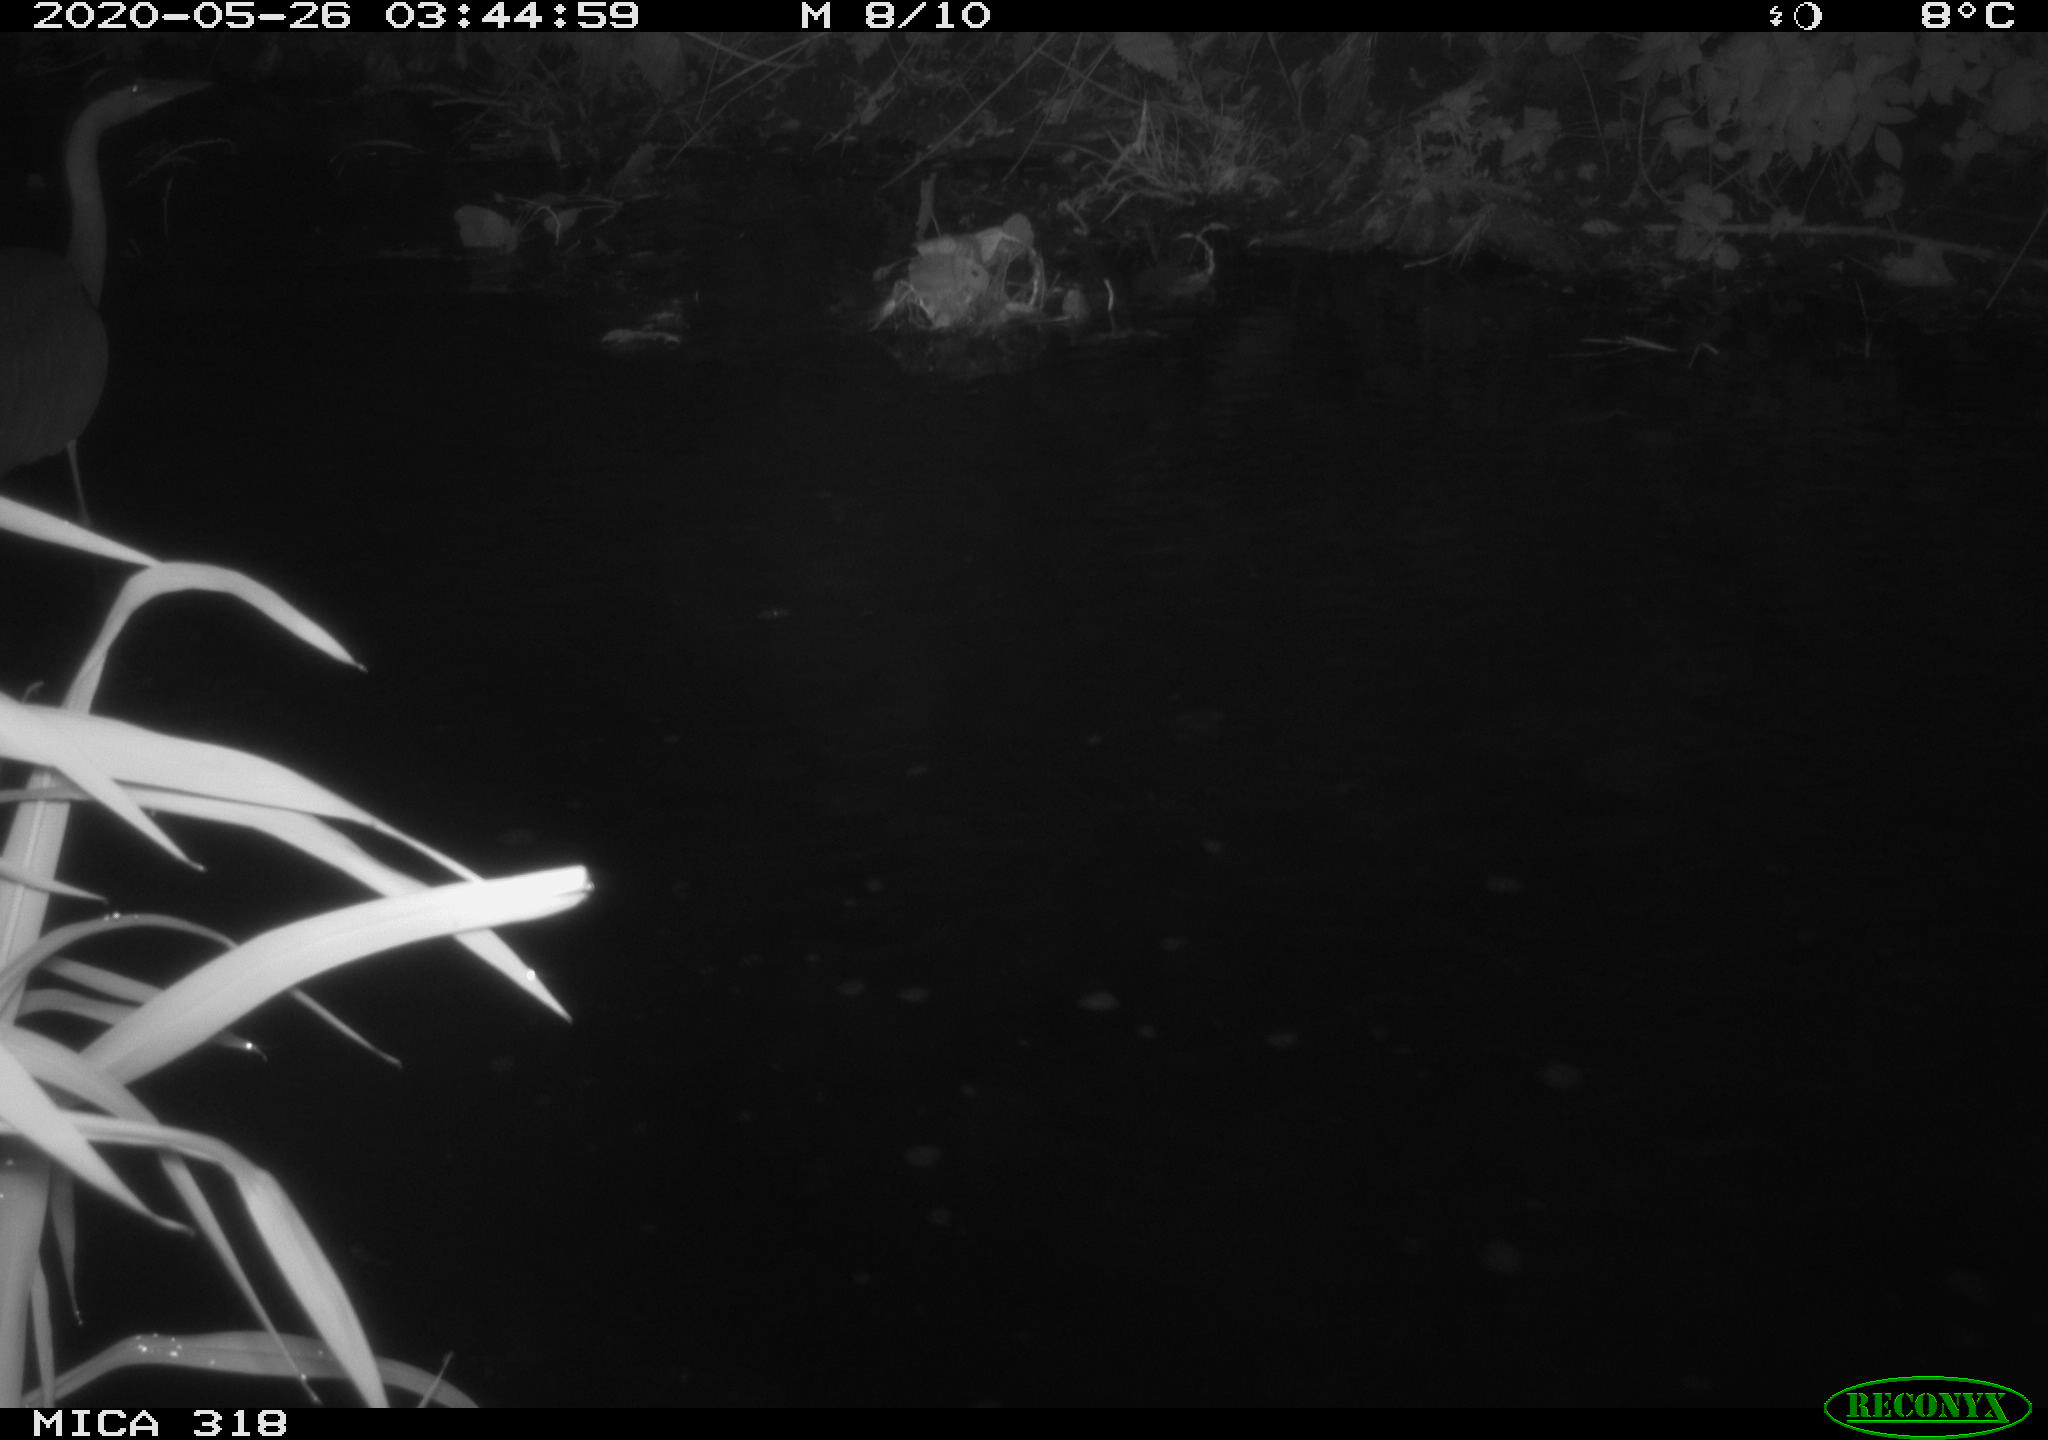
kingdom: Animalia
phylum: Chordata
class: Aves
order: Pelecaniformes
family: Ardeidae
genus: Ardea
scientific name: Ardea cinerea
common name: Grey heron
